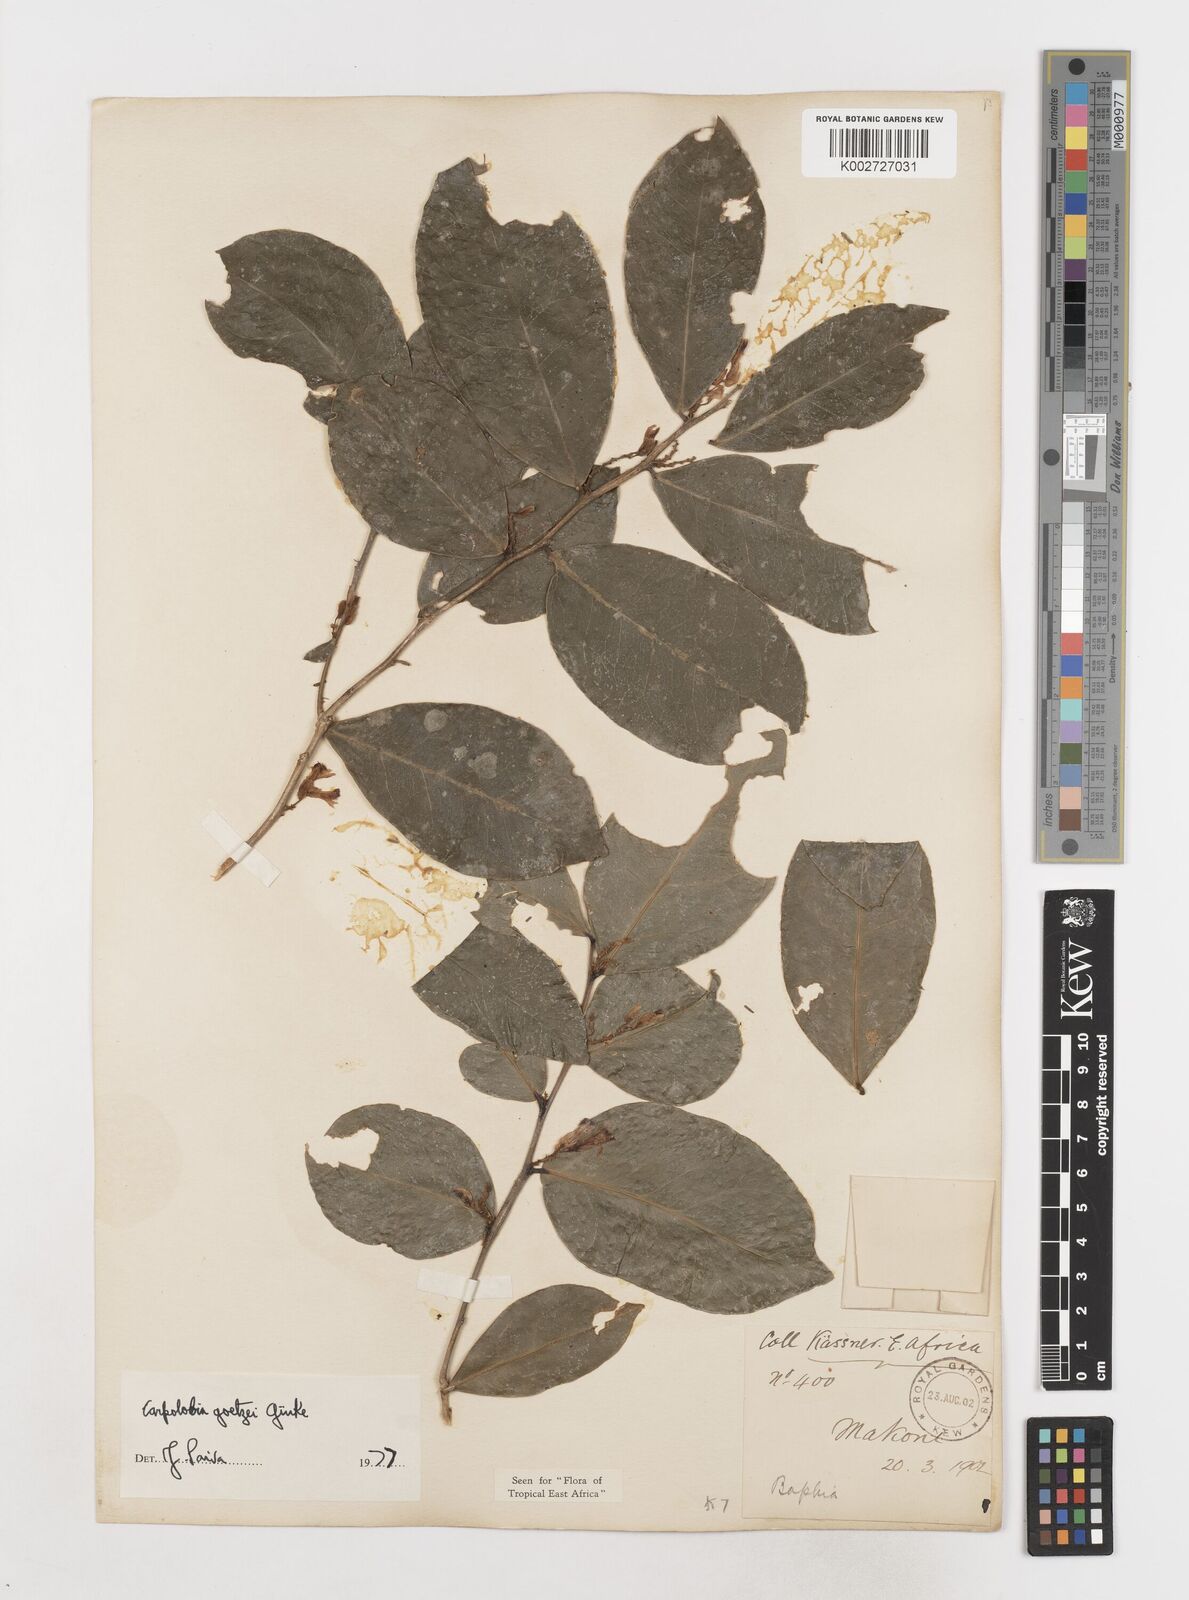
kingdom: Plantae
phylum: Tracheophyta
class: Magnoliopsida
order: Fabales
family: Polygalaceae
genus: Carpolobia
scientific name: Carpolobia goetzei
